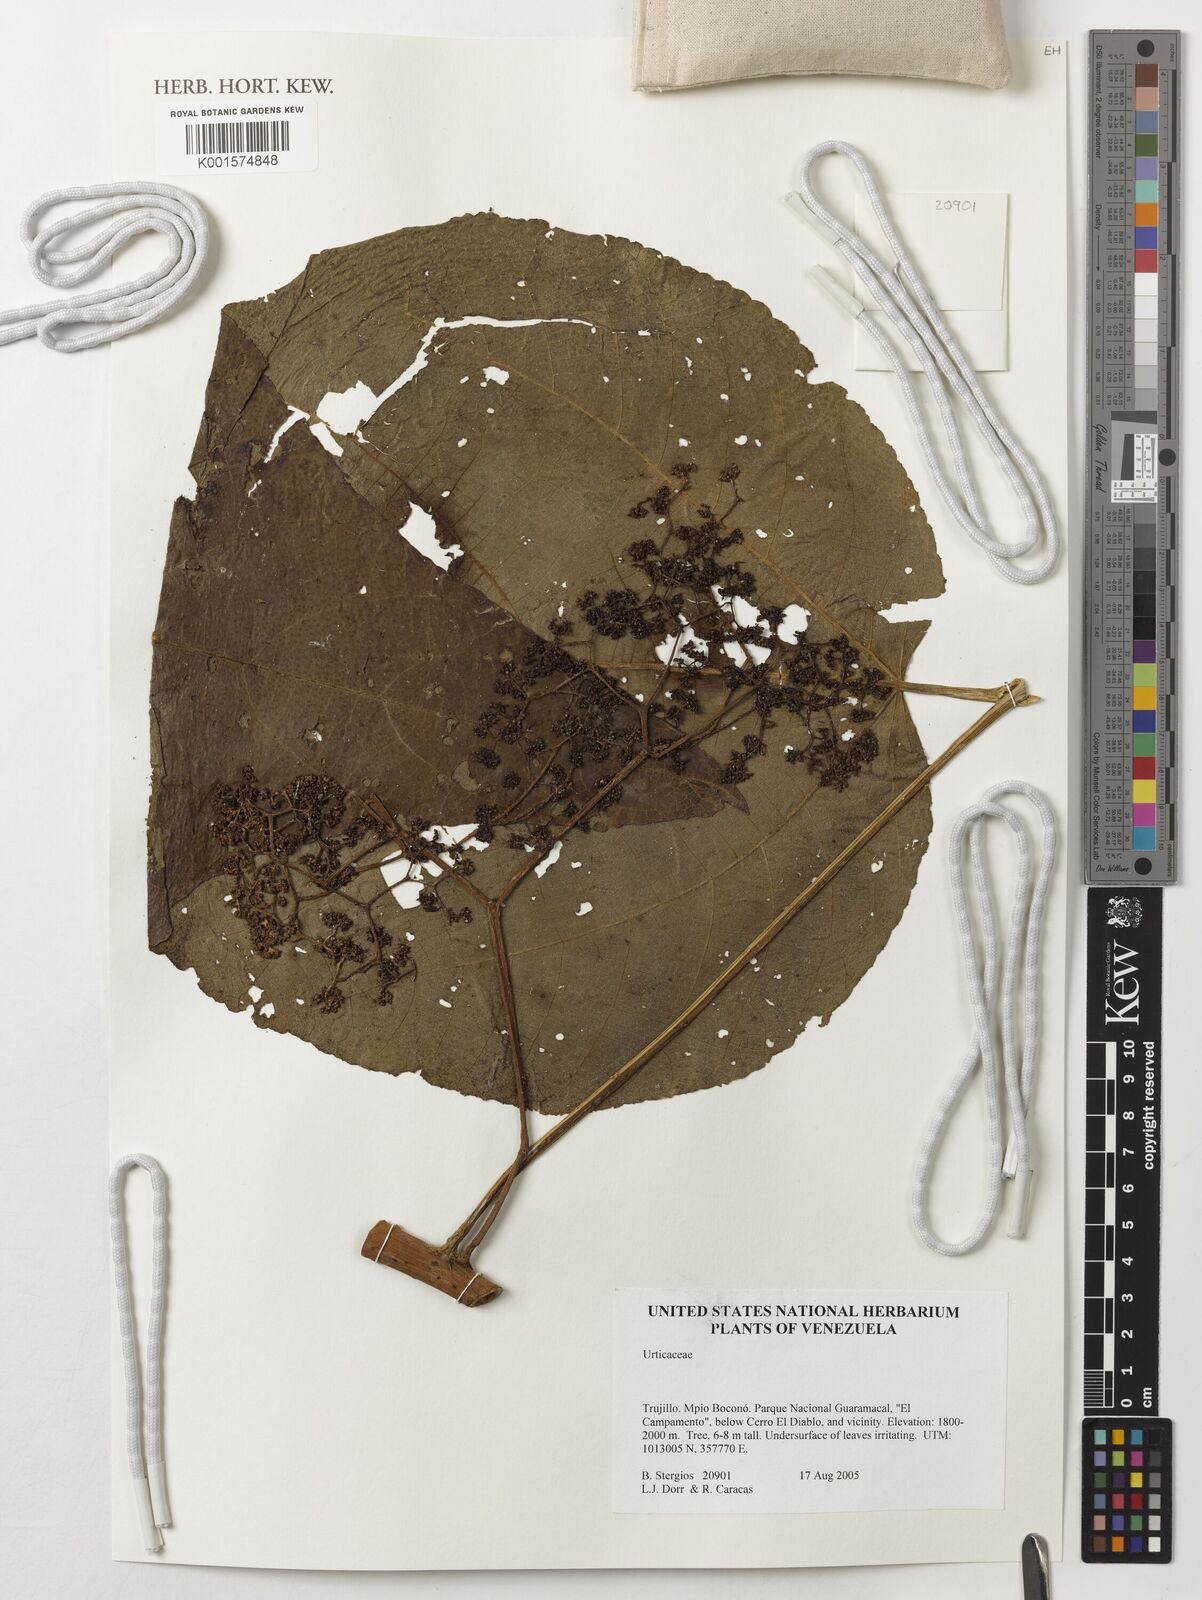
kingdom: Plantae
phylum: Tracheophyta
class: Magnoliopsida
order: Rosales
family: Urticaceae
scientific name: Urticaceae
